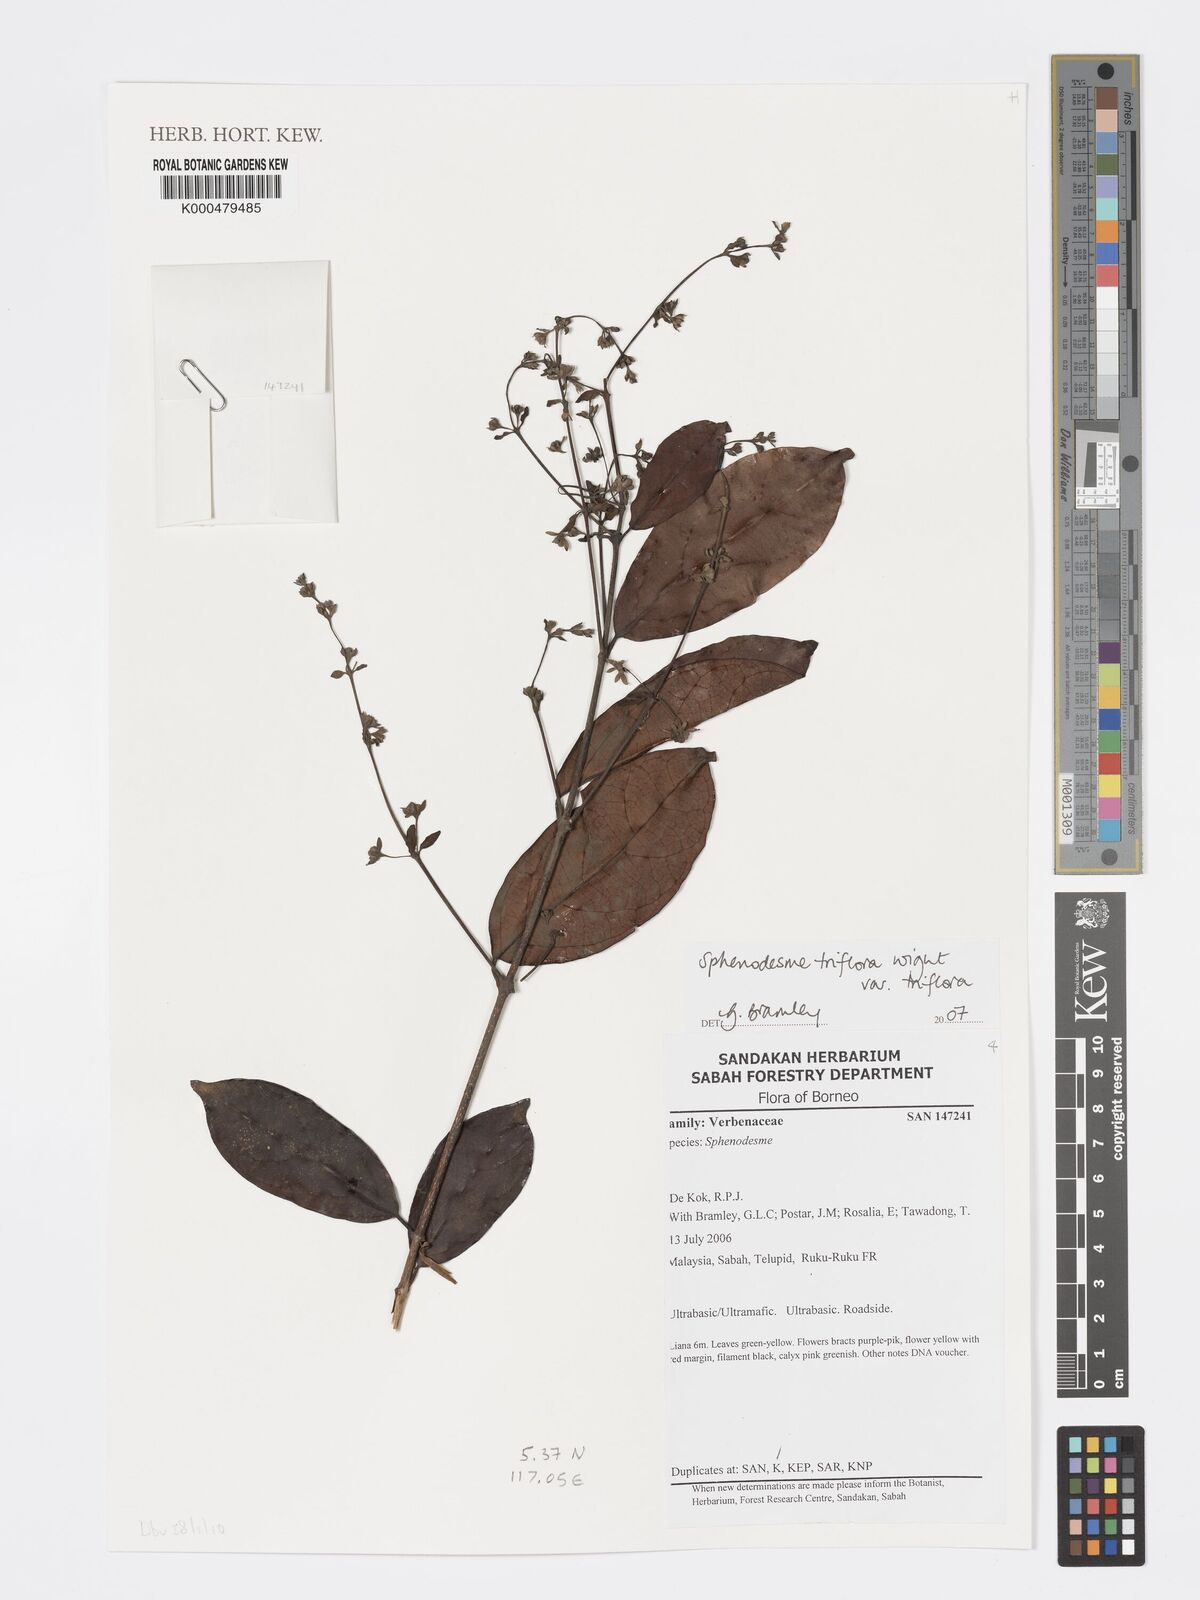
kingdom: Plantae
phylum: Tracheophyta
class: Magnoliopsida
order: Lamiales
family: Lamiaceae
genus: Sphenodesme
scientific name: Sphenodesme triflora
